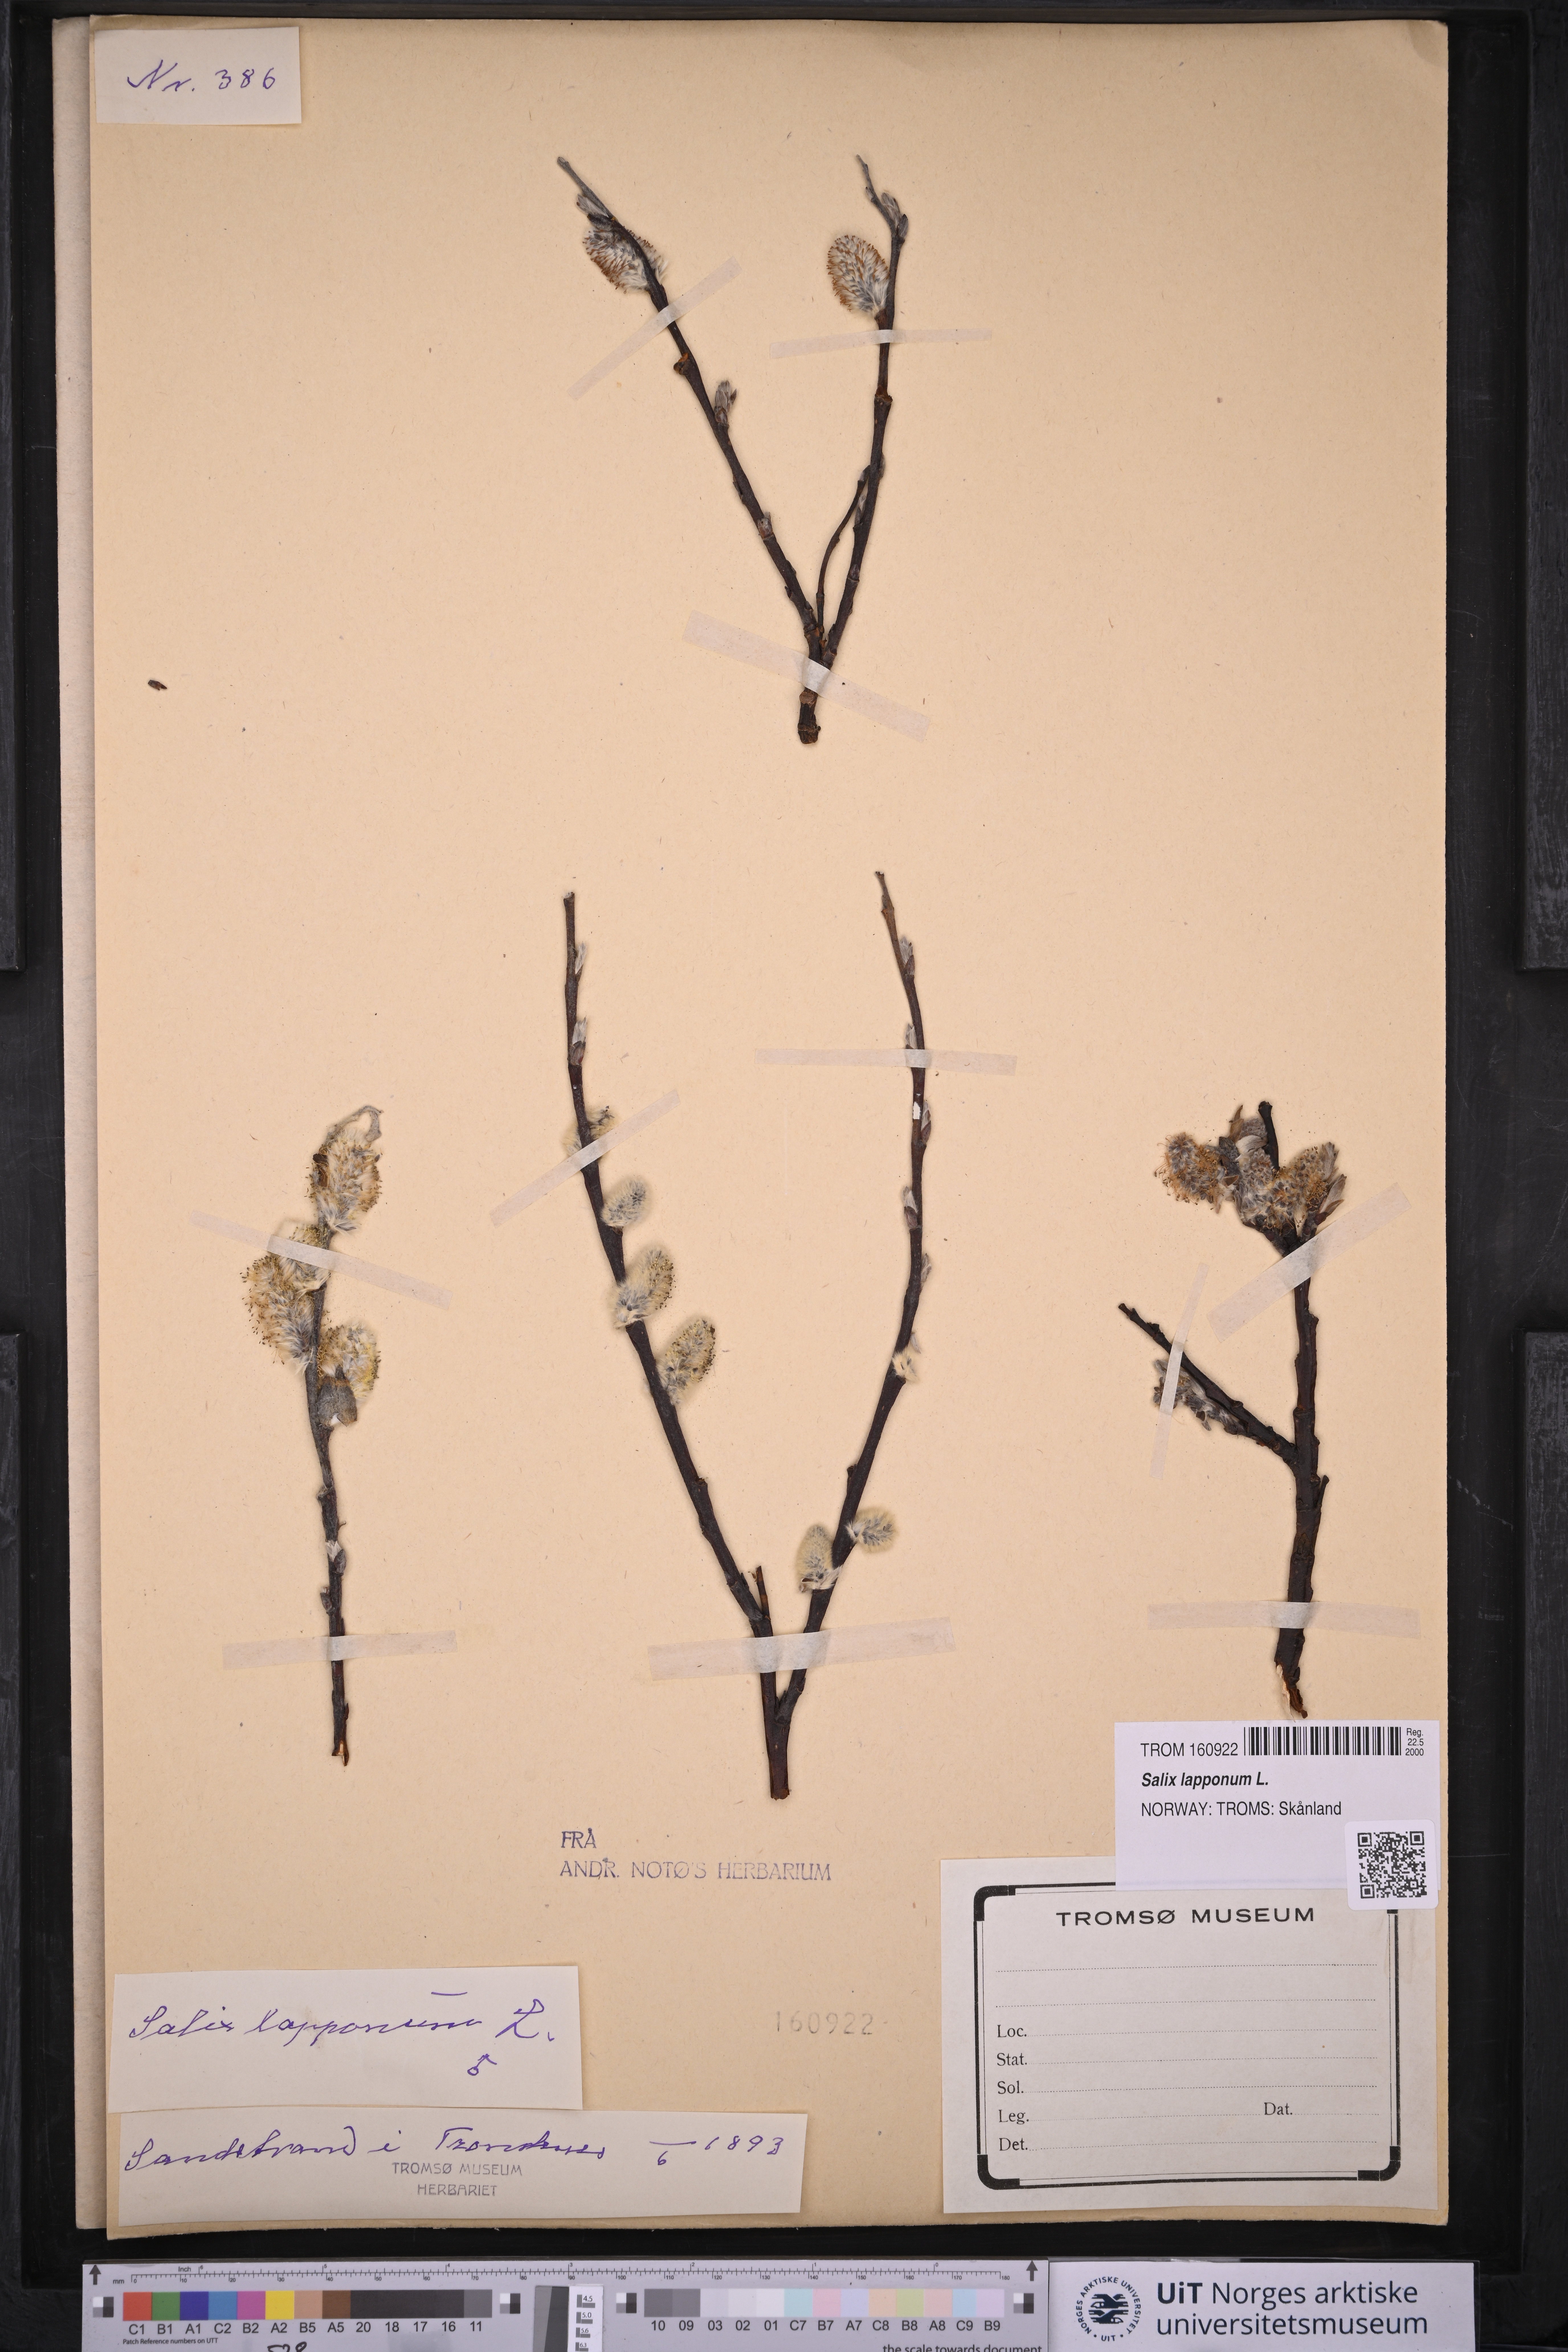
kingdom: Plantae
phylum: Tracheophyta
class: Magnoliopsida
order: Malpighiales
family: Salicaceae
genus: Salix
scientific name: Salix lapponum
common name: Downy willow
